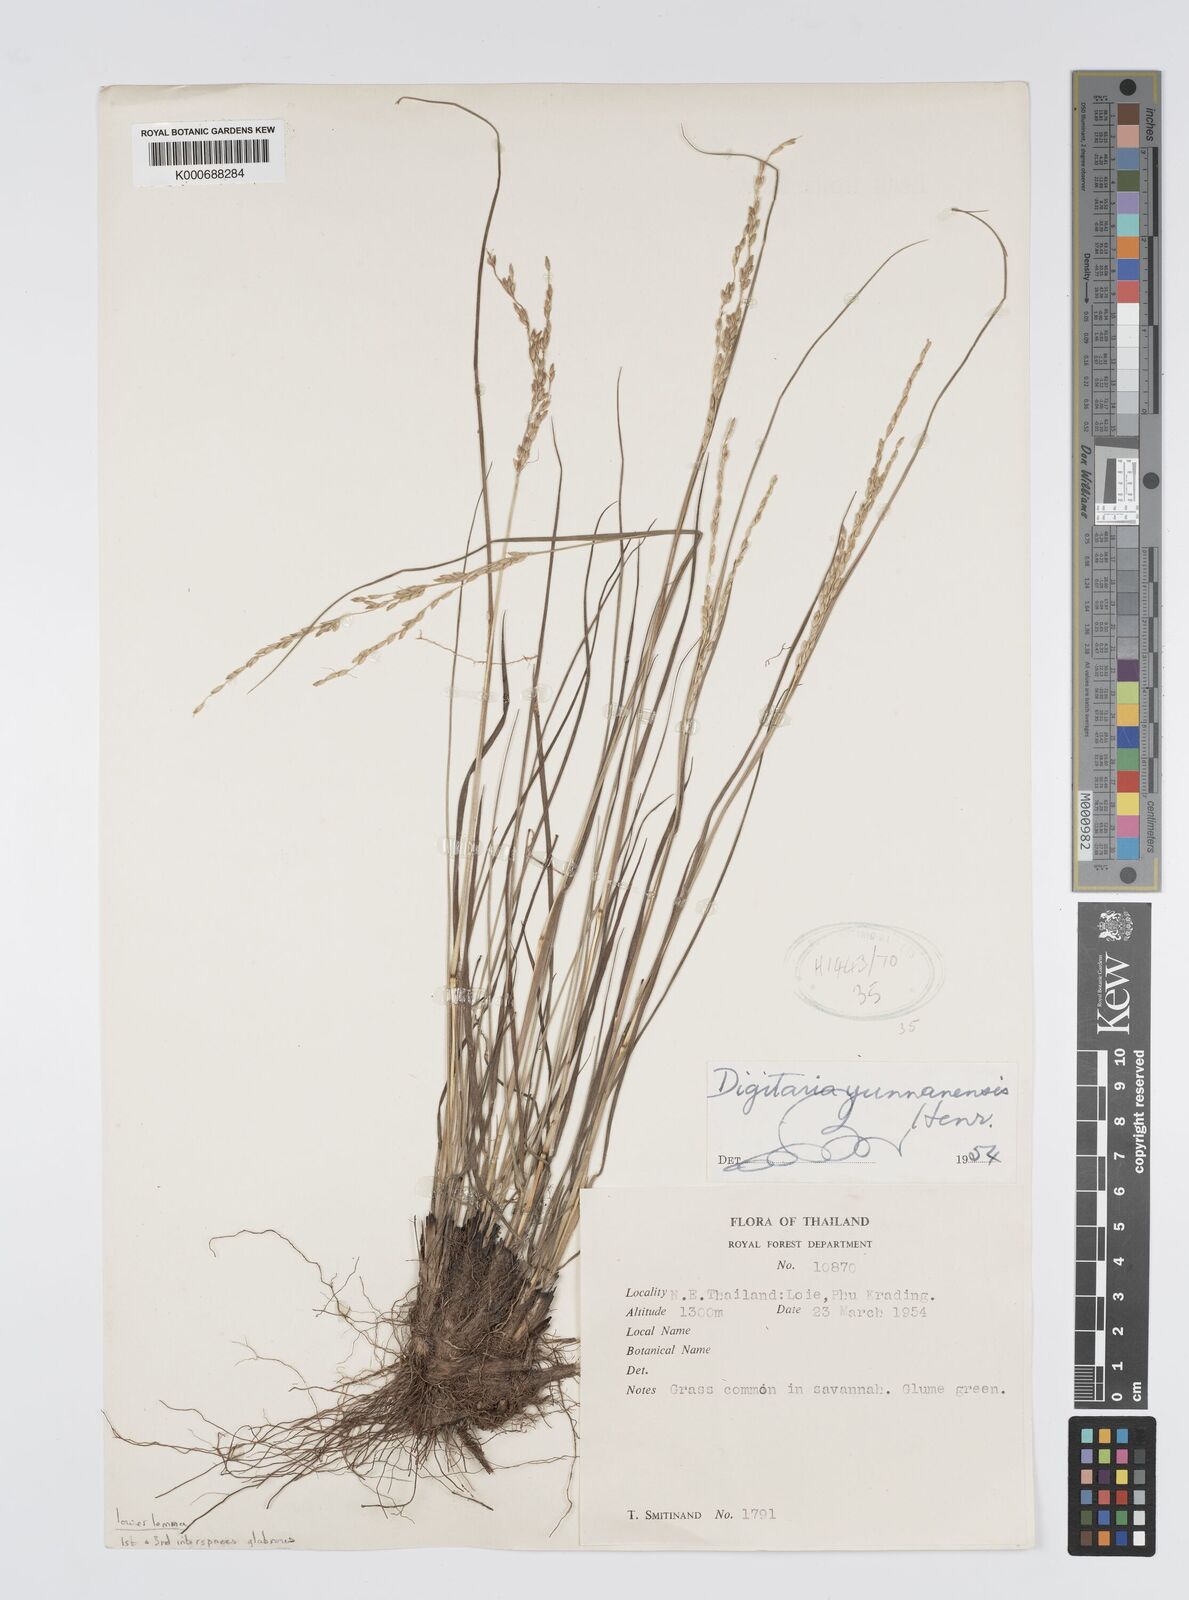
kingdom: Plantae
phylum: Tracheophyta
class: Liliopsida
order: Poales
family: Poaceae
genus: Digitaria
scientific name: Digitaria setifolia
